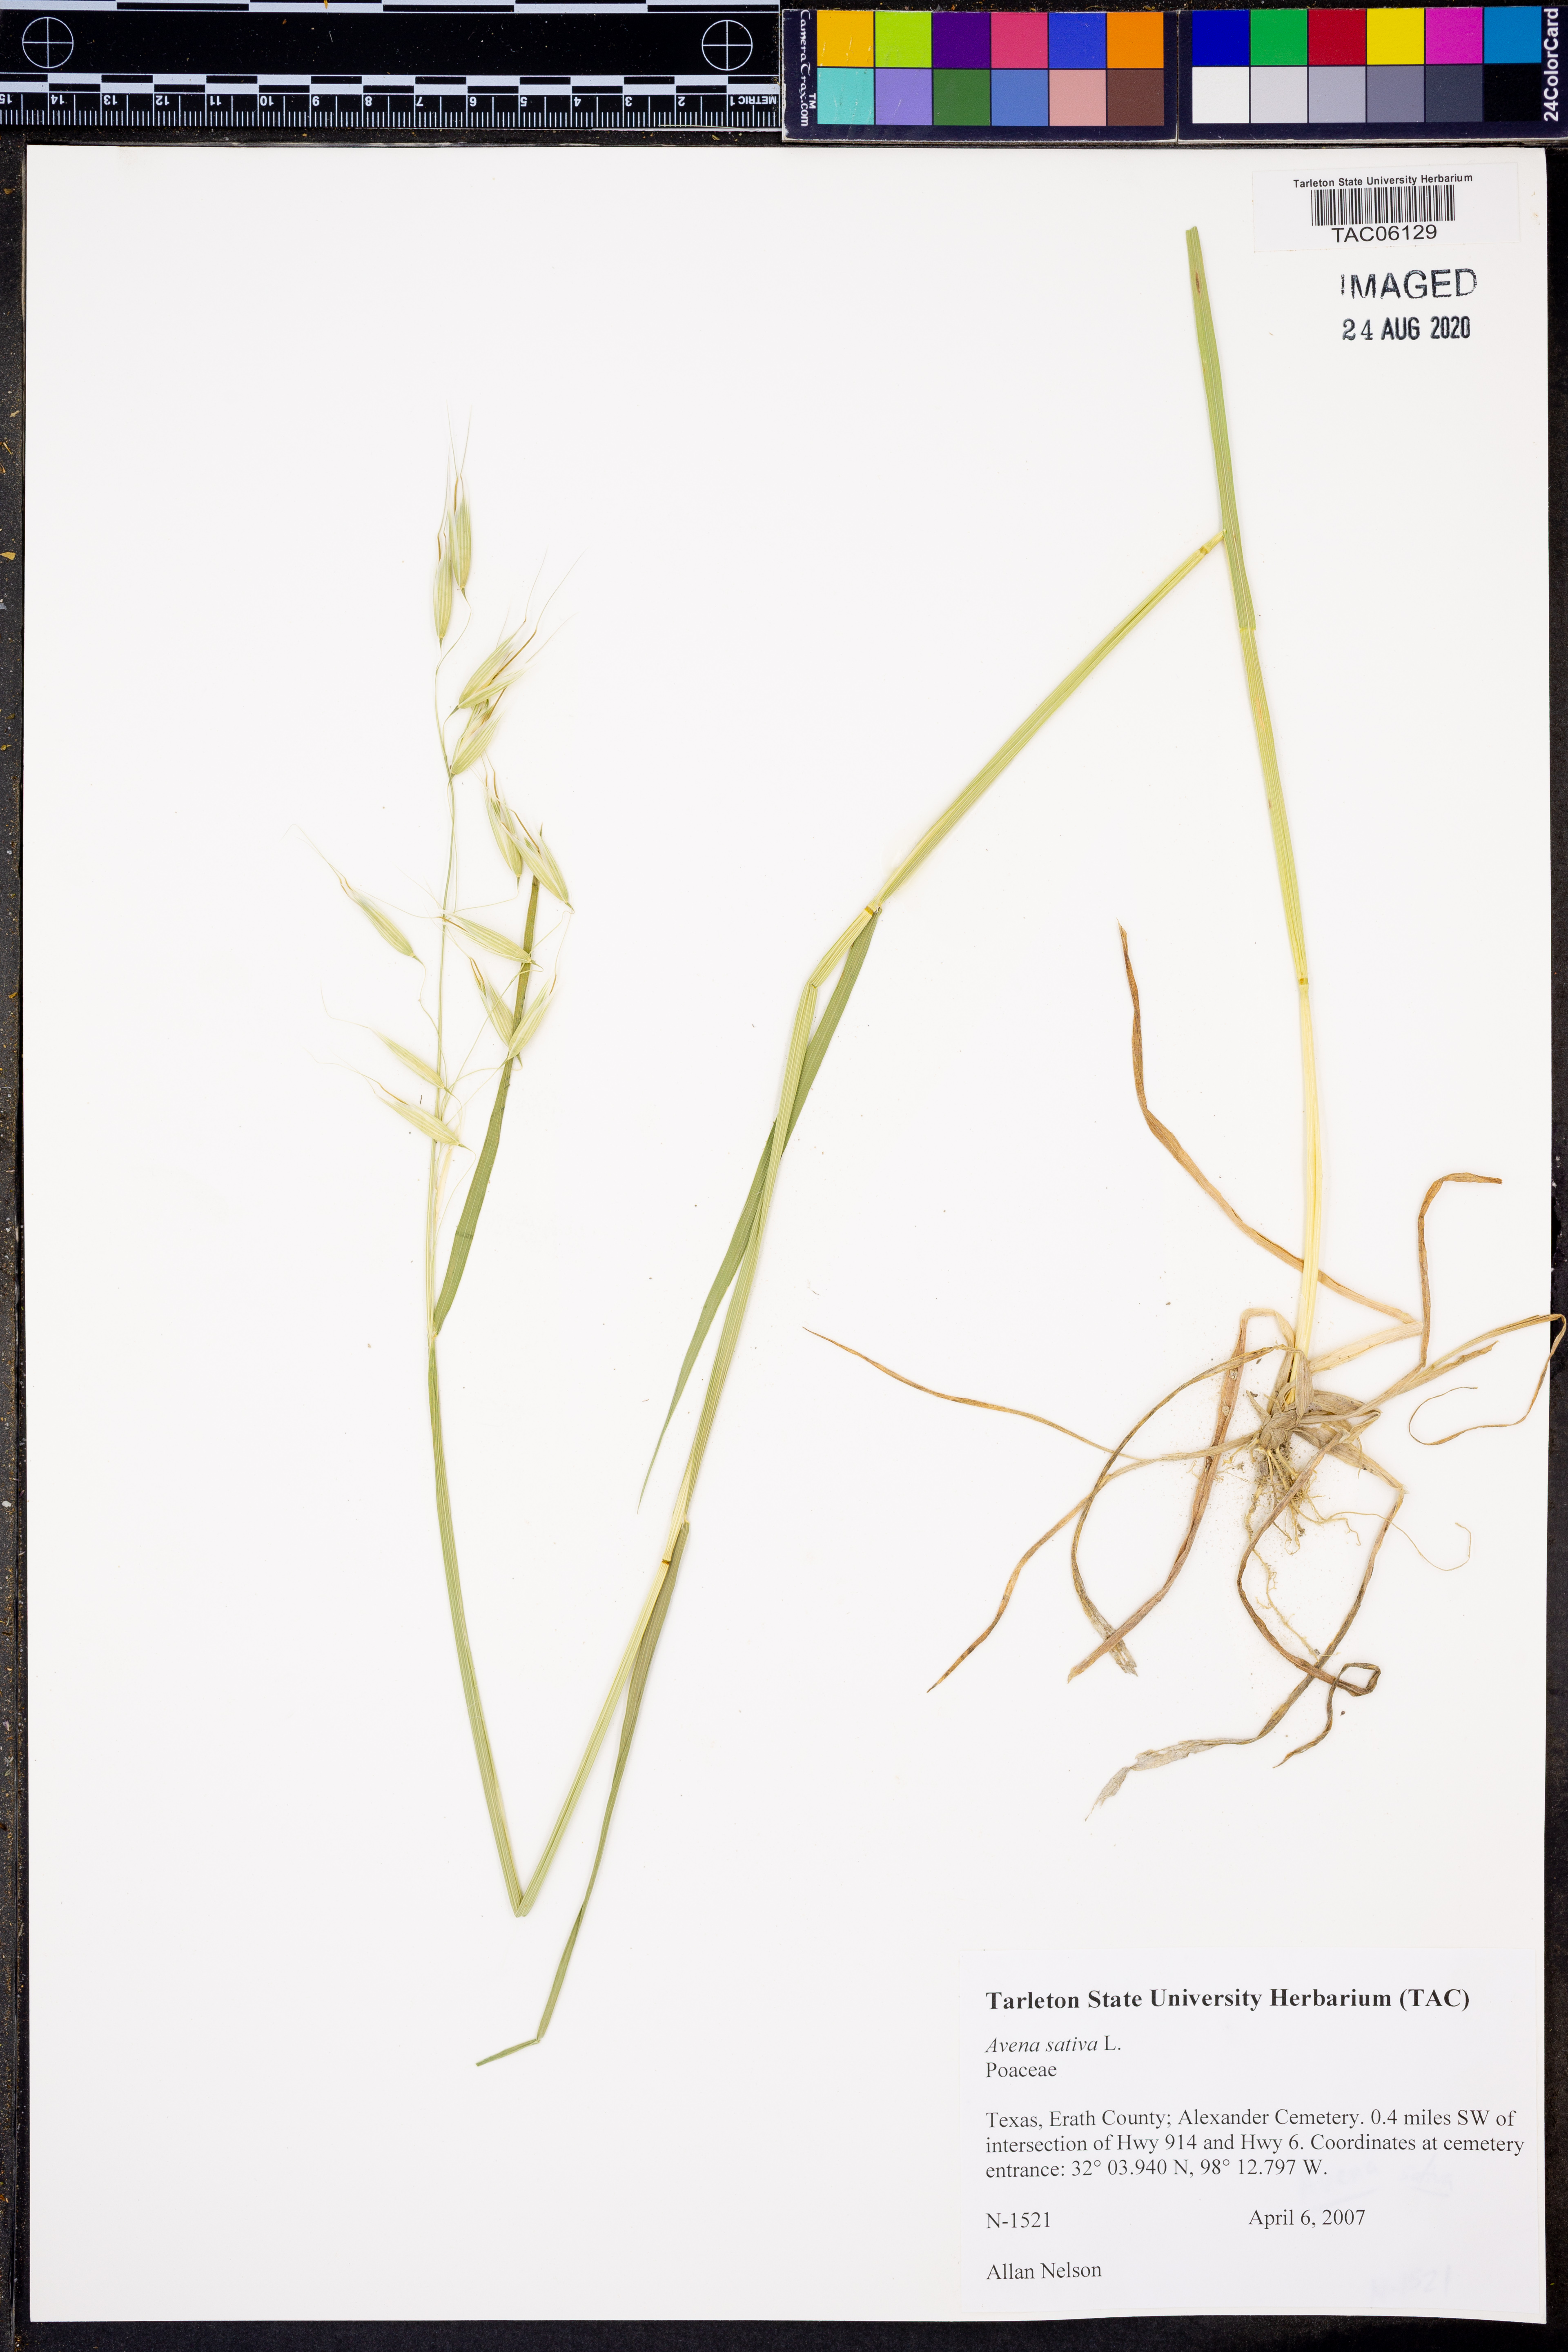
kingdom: Plantae
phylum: Tracheophyta
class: Liliopsida
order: Poales
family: Poaceae
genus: Avena
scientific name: Avena sativa
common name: Oat
